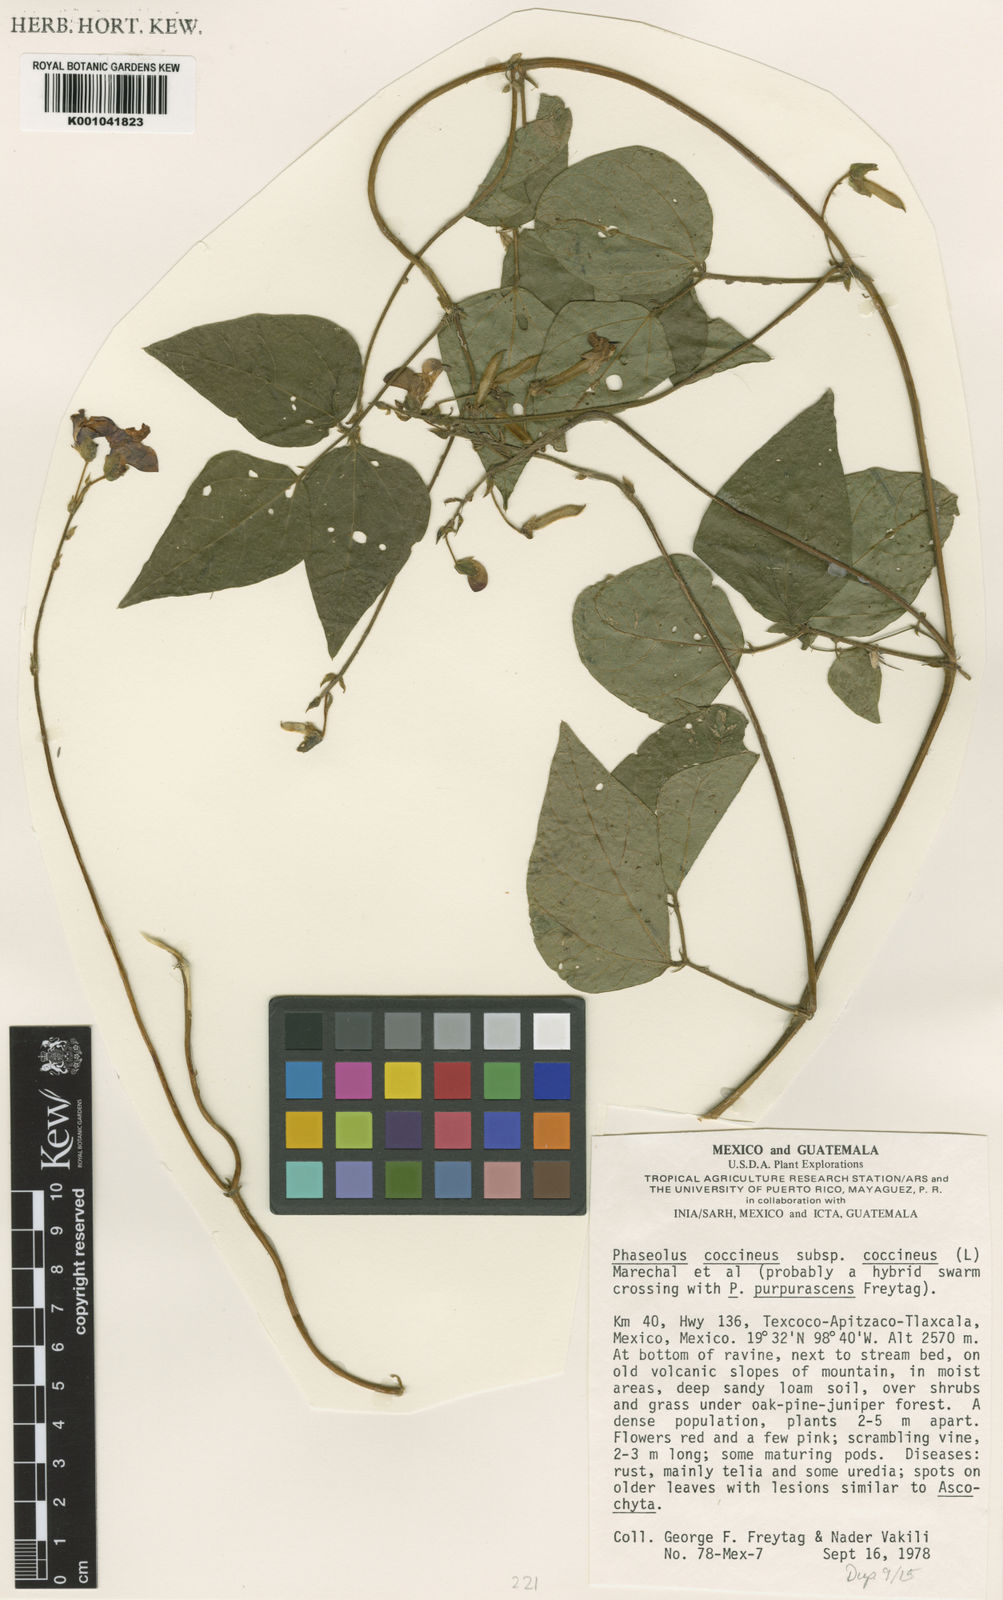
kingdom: Plantae
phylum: Tracheophyta
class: Magnoliopsida
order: Fabales
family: Fabaceae
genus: Phaseolus
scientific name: Phaseolus
